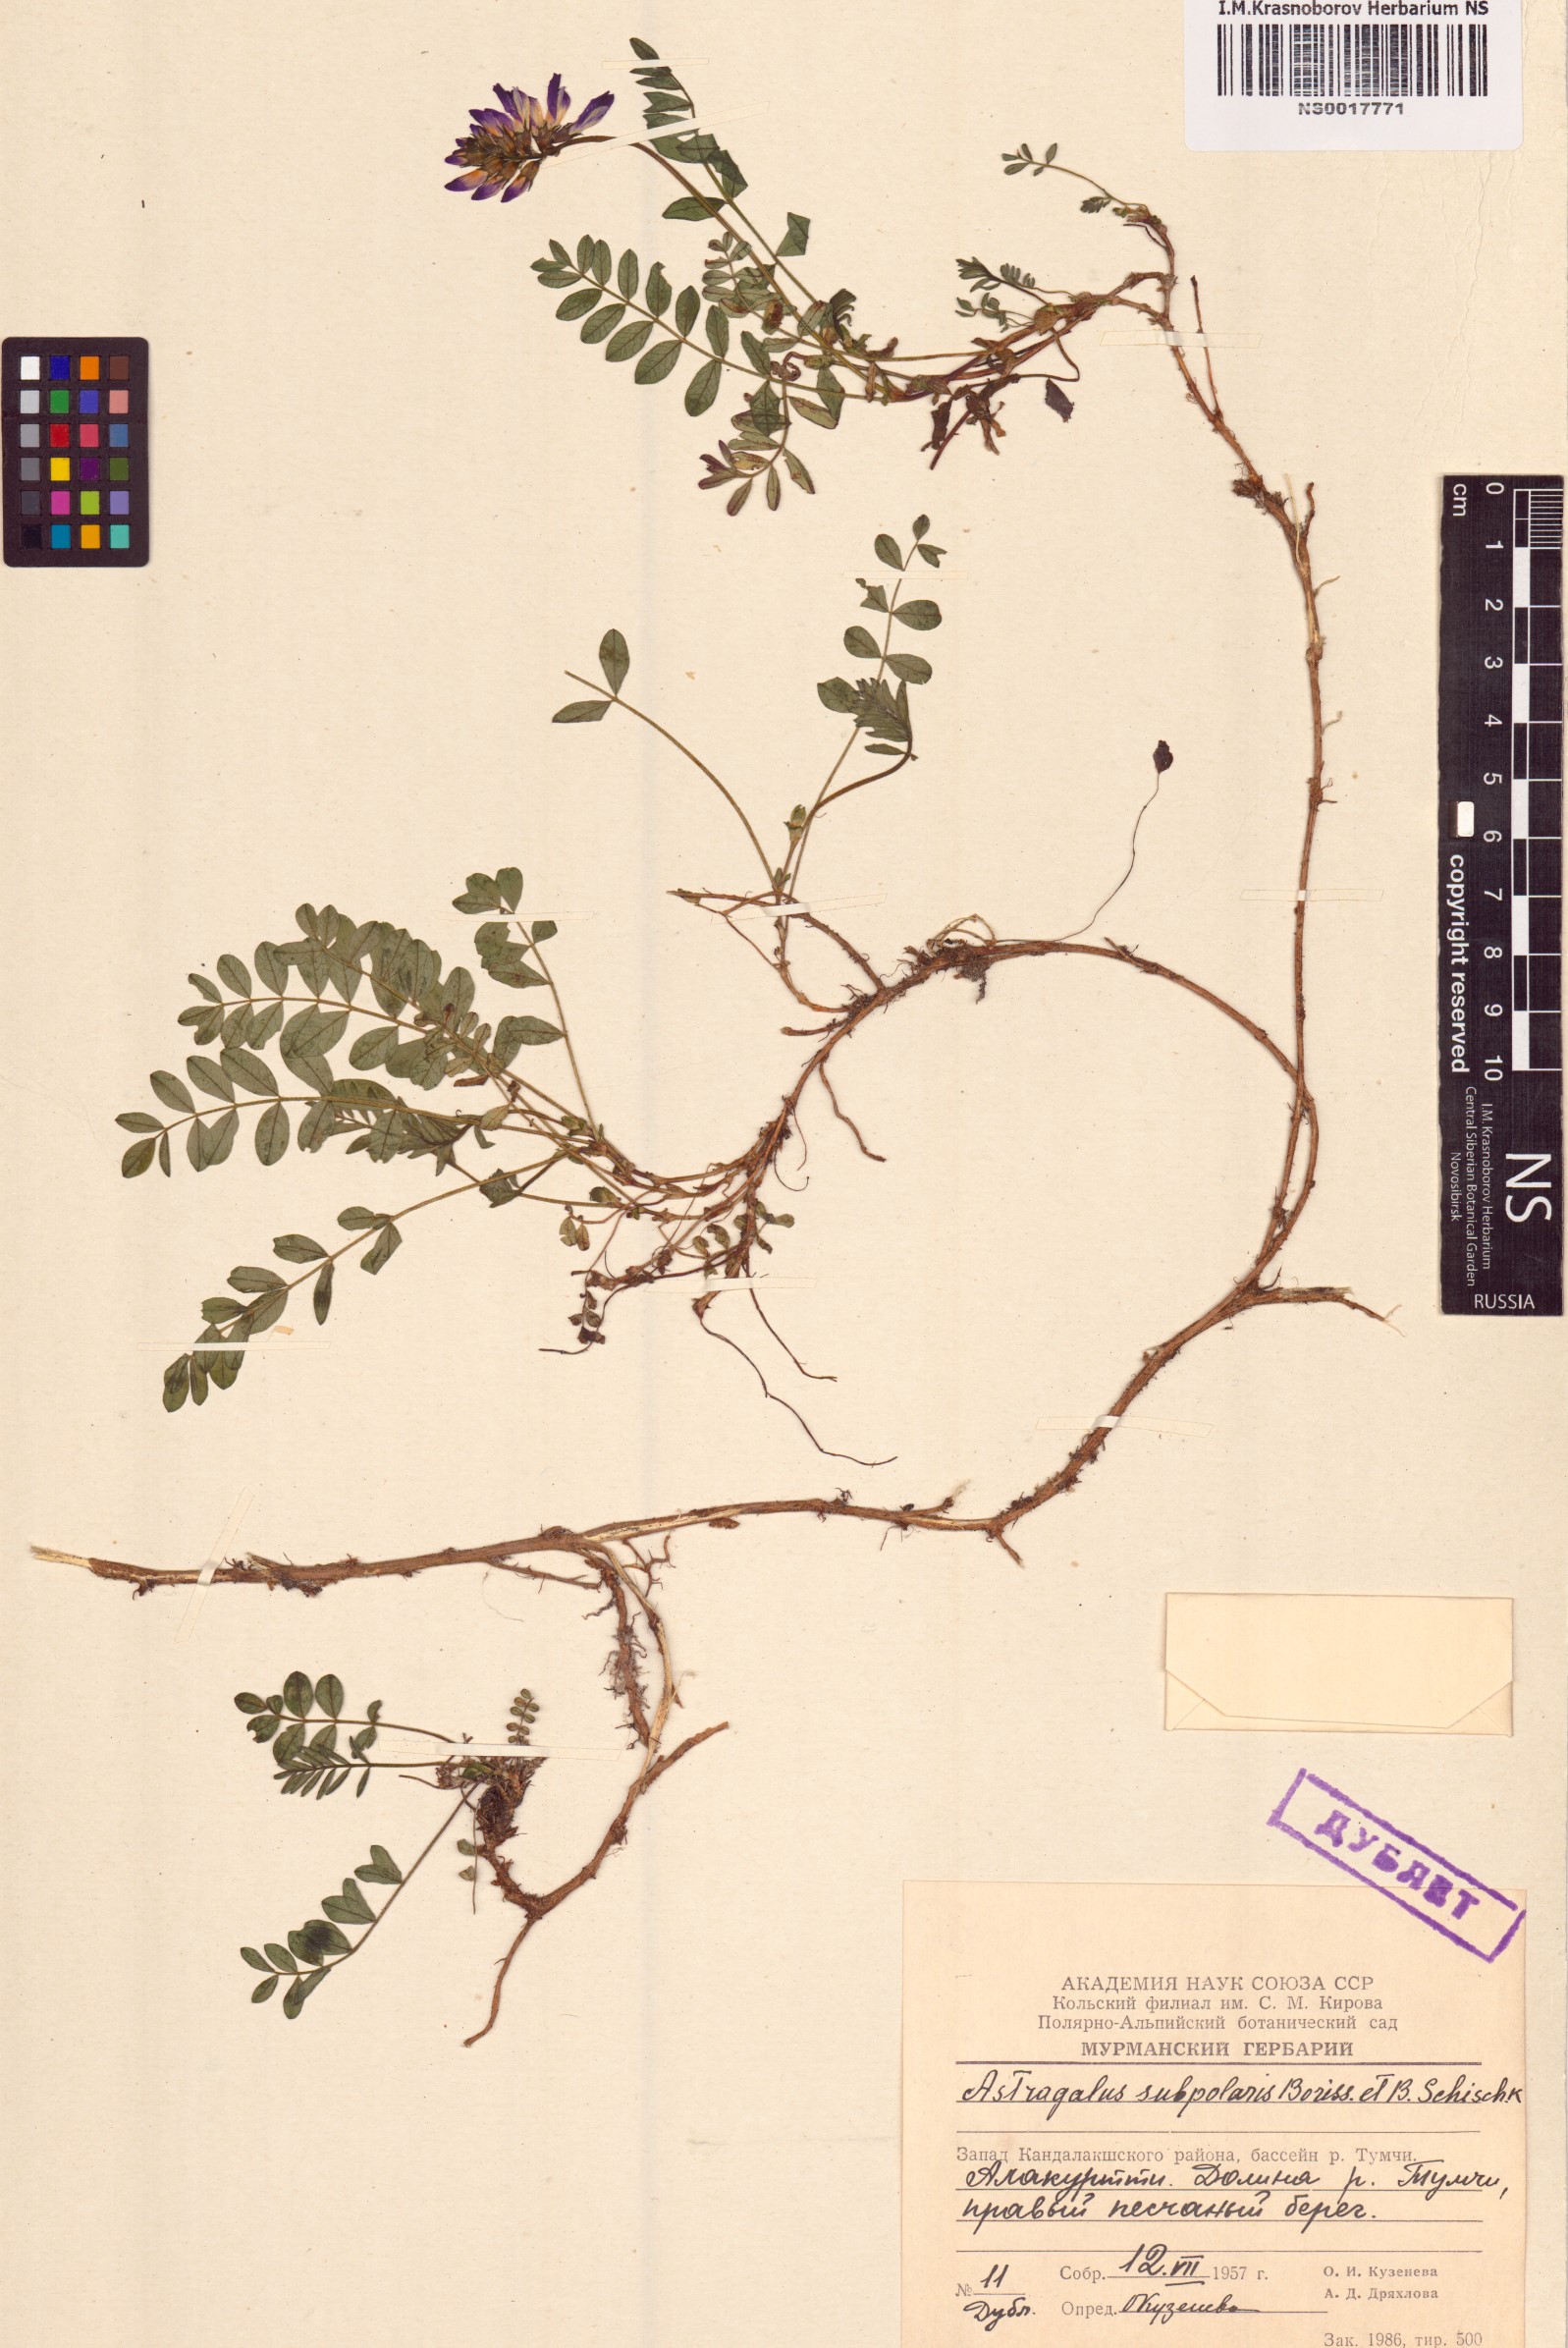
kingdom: Plantae
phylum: Tracheophyta
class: Magnoliopsida
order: Fabales
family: Fabaceae
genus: Astragalus
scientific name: Astragalus norvegicus
